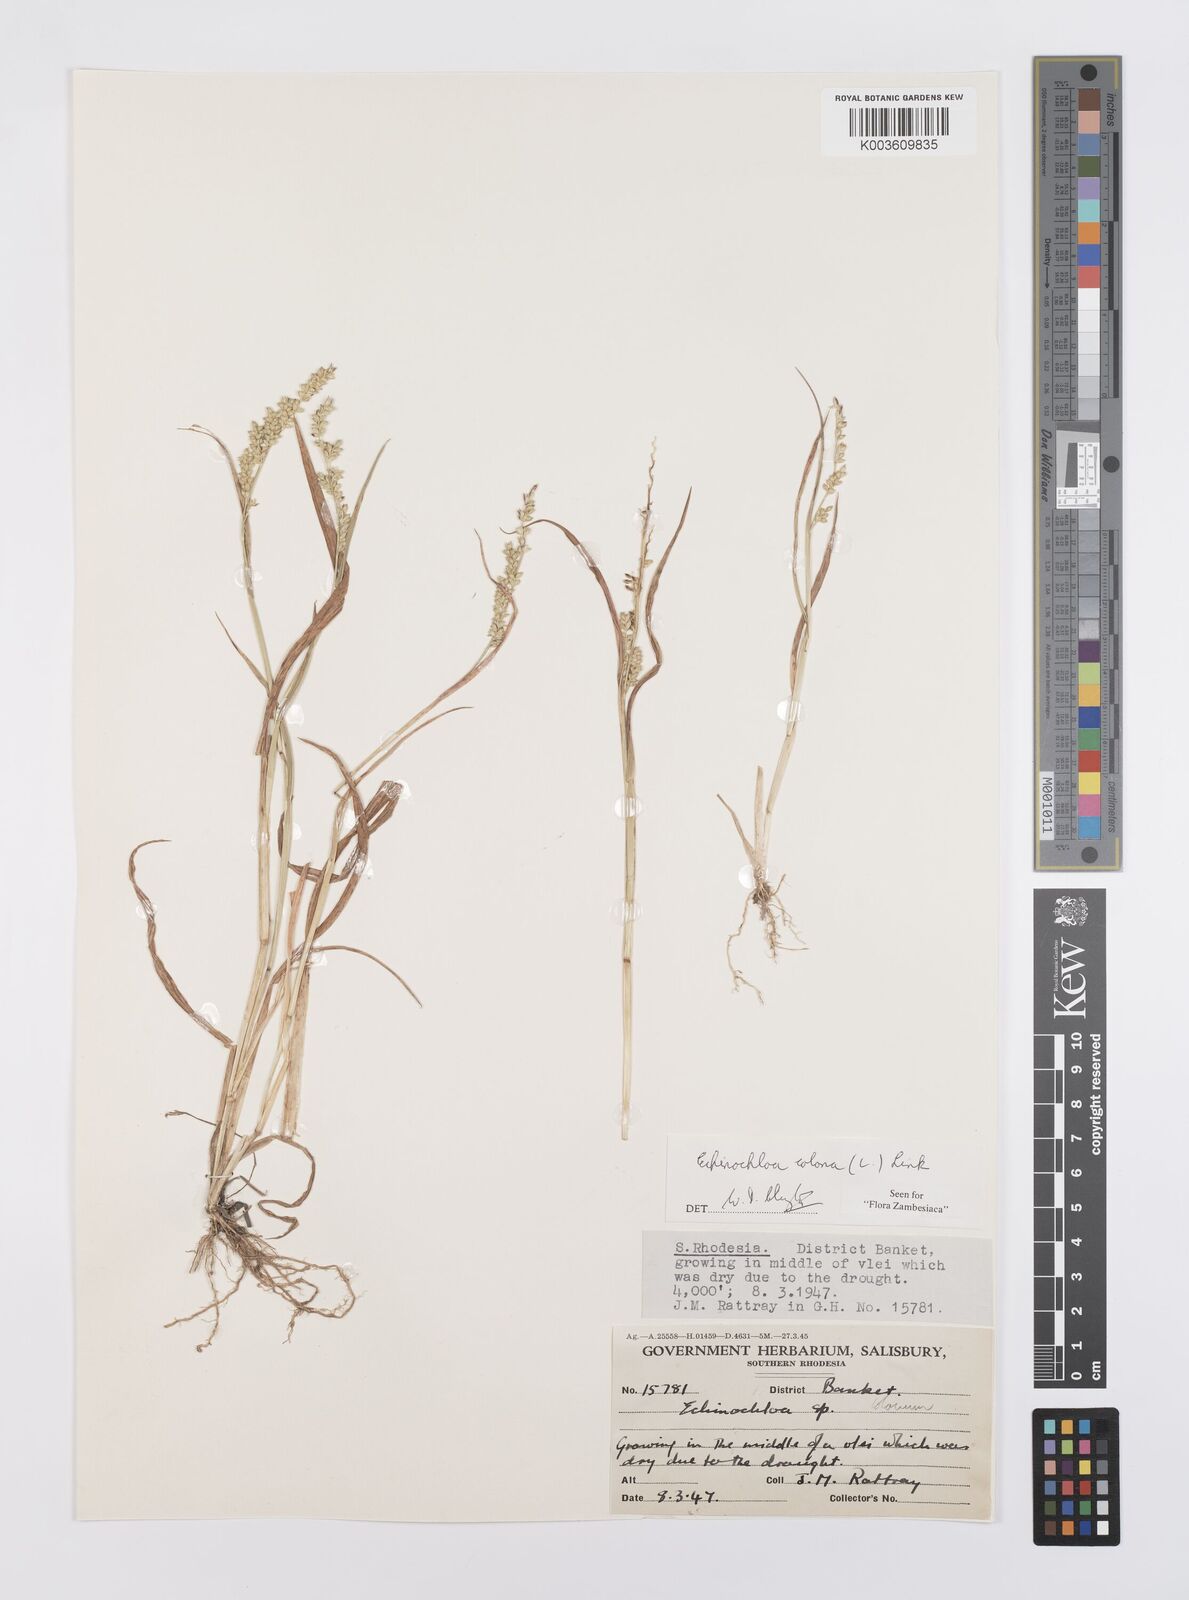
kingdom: Plantae
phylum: Tracheophyta
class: Liliopsida
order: Poales
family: Poaceae
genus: Echinochloa
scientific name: Echinochloa colonum
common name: Jungle rice
